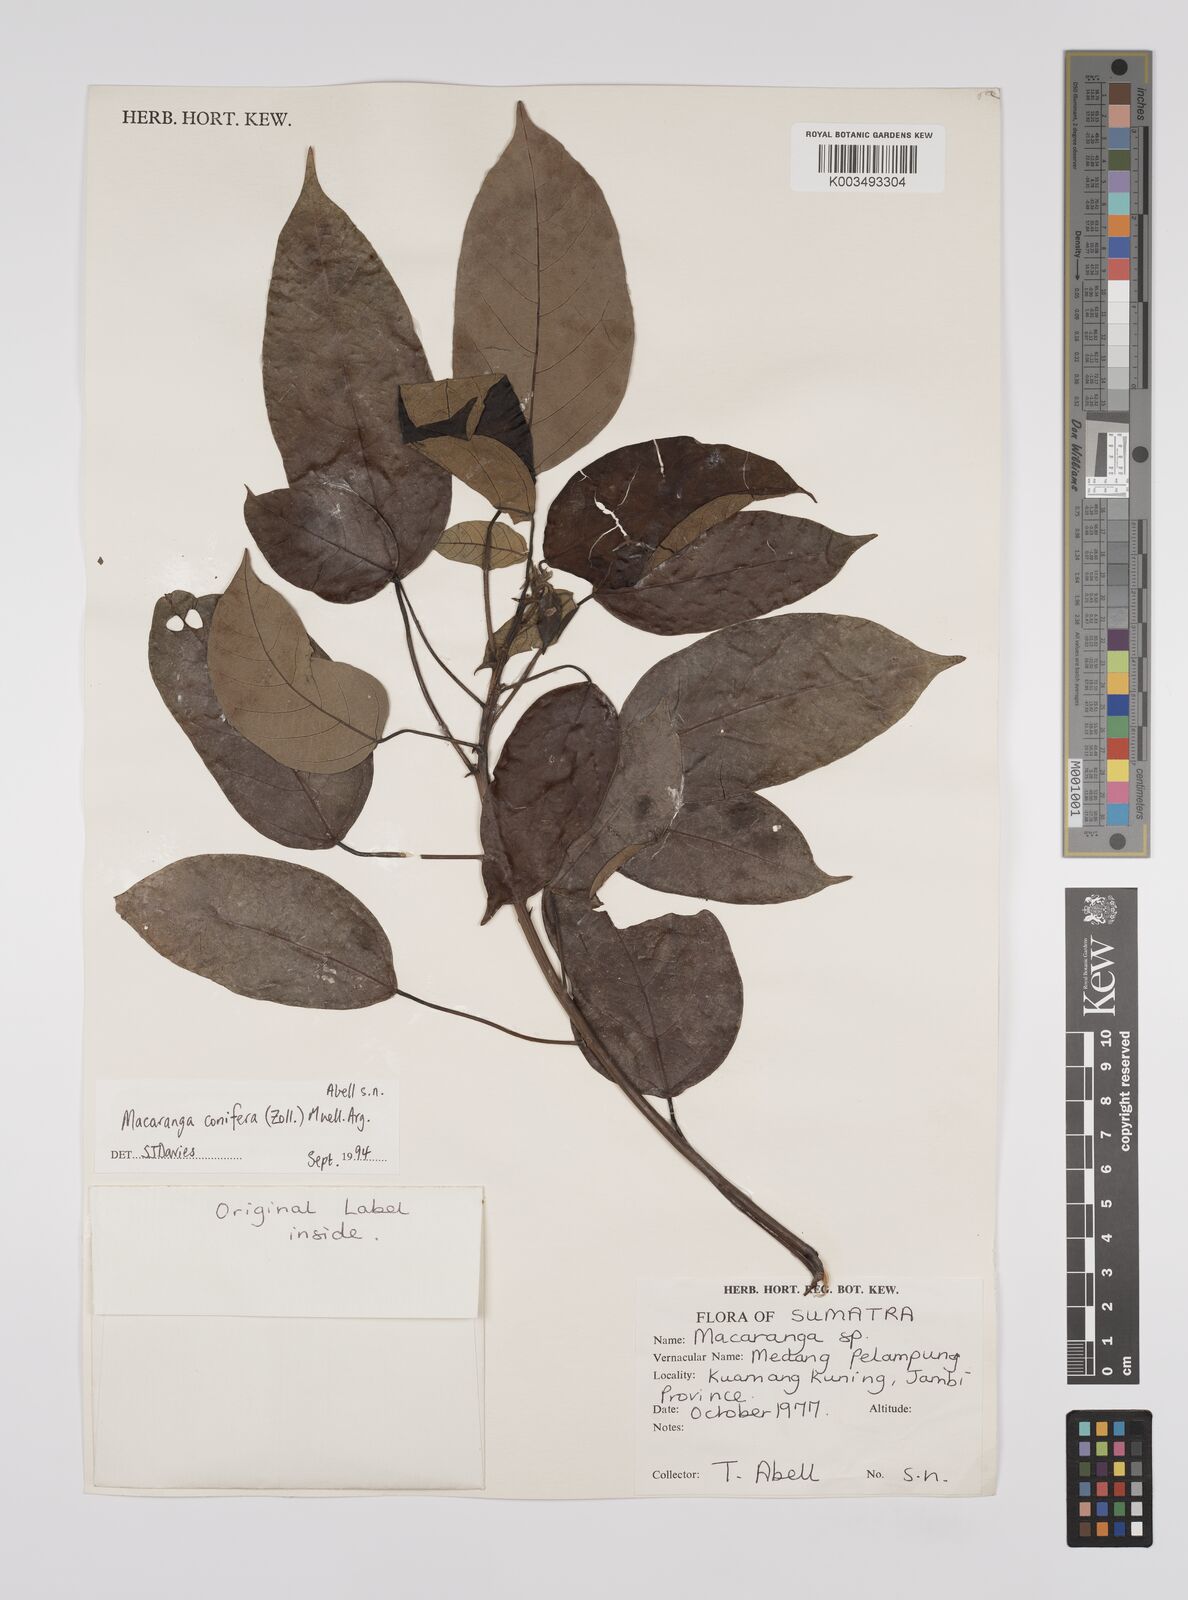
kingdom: Plantae
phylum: Tracheophyta
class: Magnoliopsida
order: Malpighiales
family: Euphorbiaceae
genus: Macaranga
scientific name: Macaranga conifera
